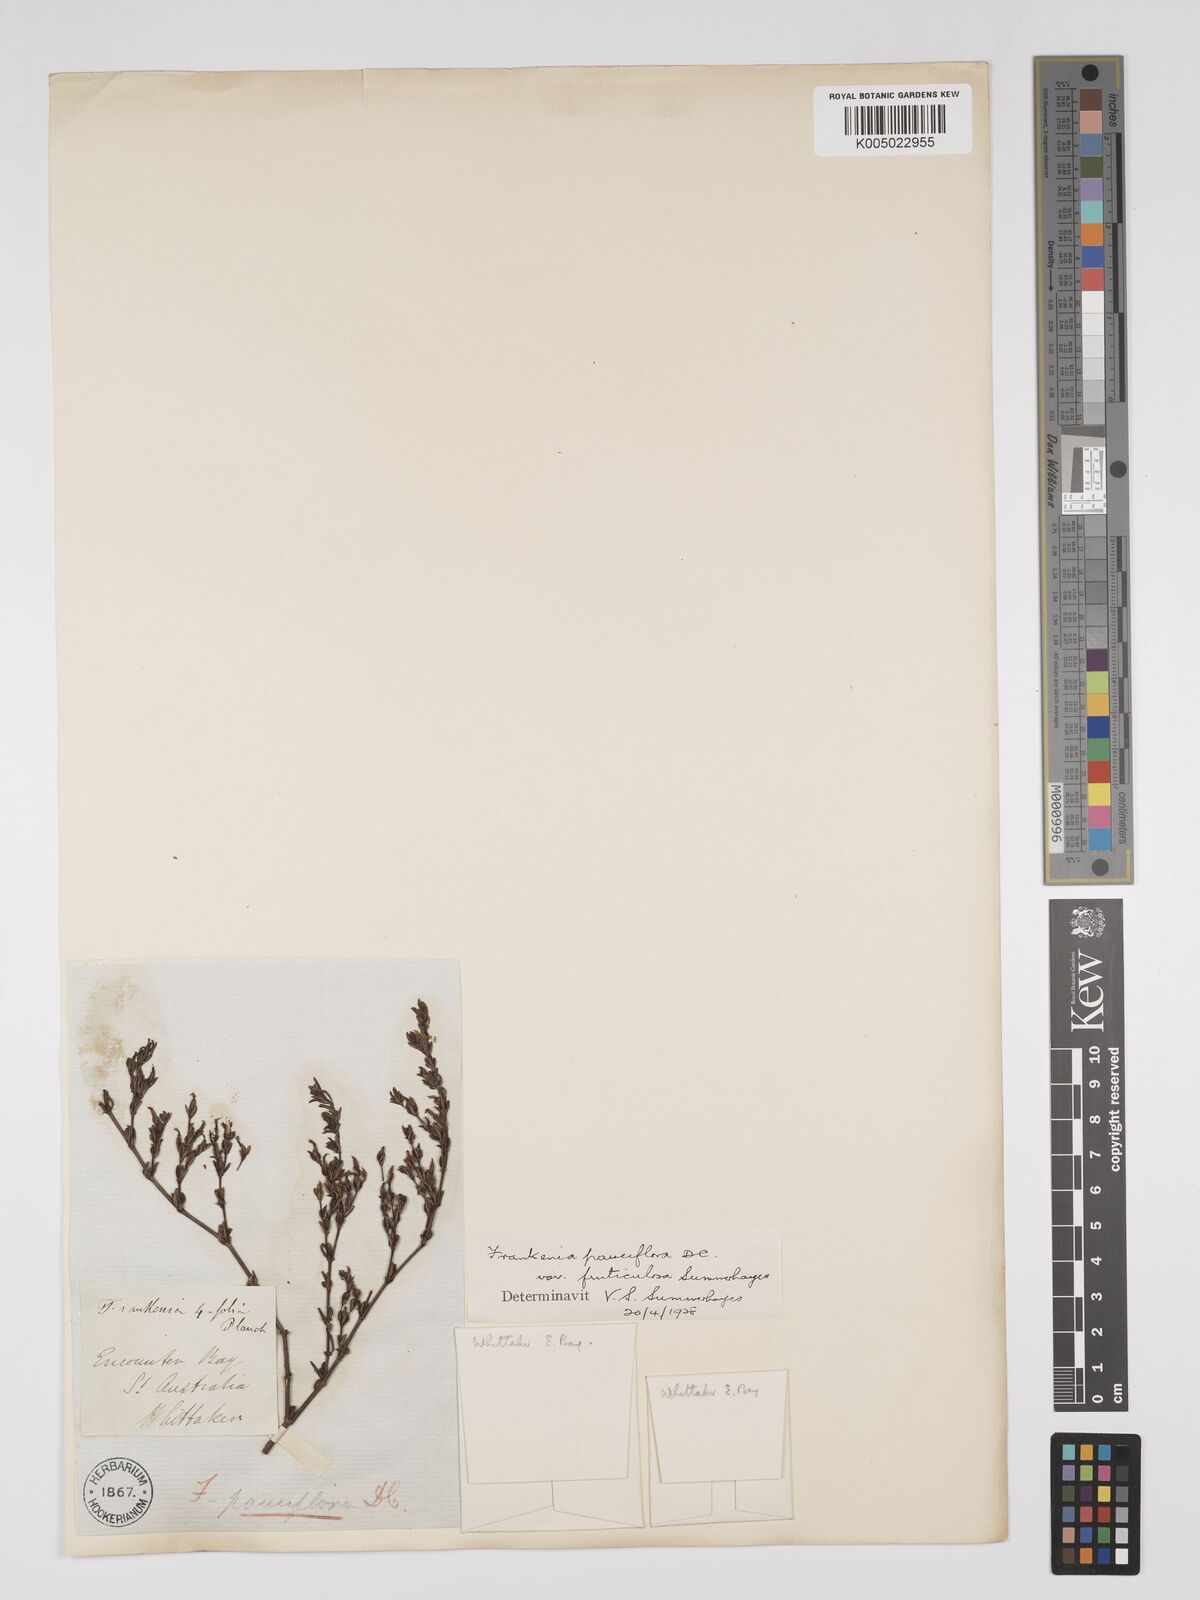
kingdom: Plantae
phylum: Tracheophyta
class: Magnoliopsida
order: Caryophyllales
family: Frankeniaceae
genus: Frankenia
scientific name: Frankenia pauciflora
